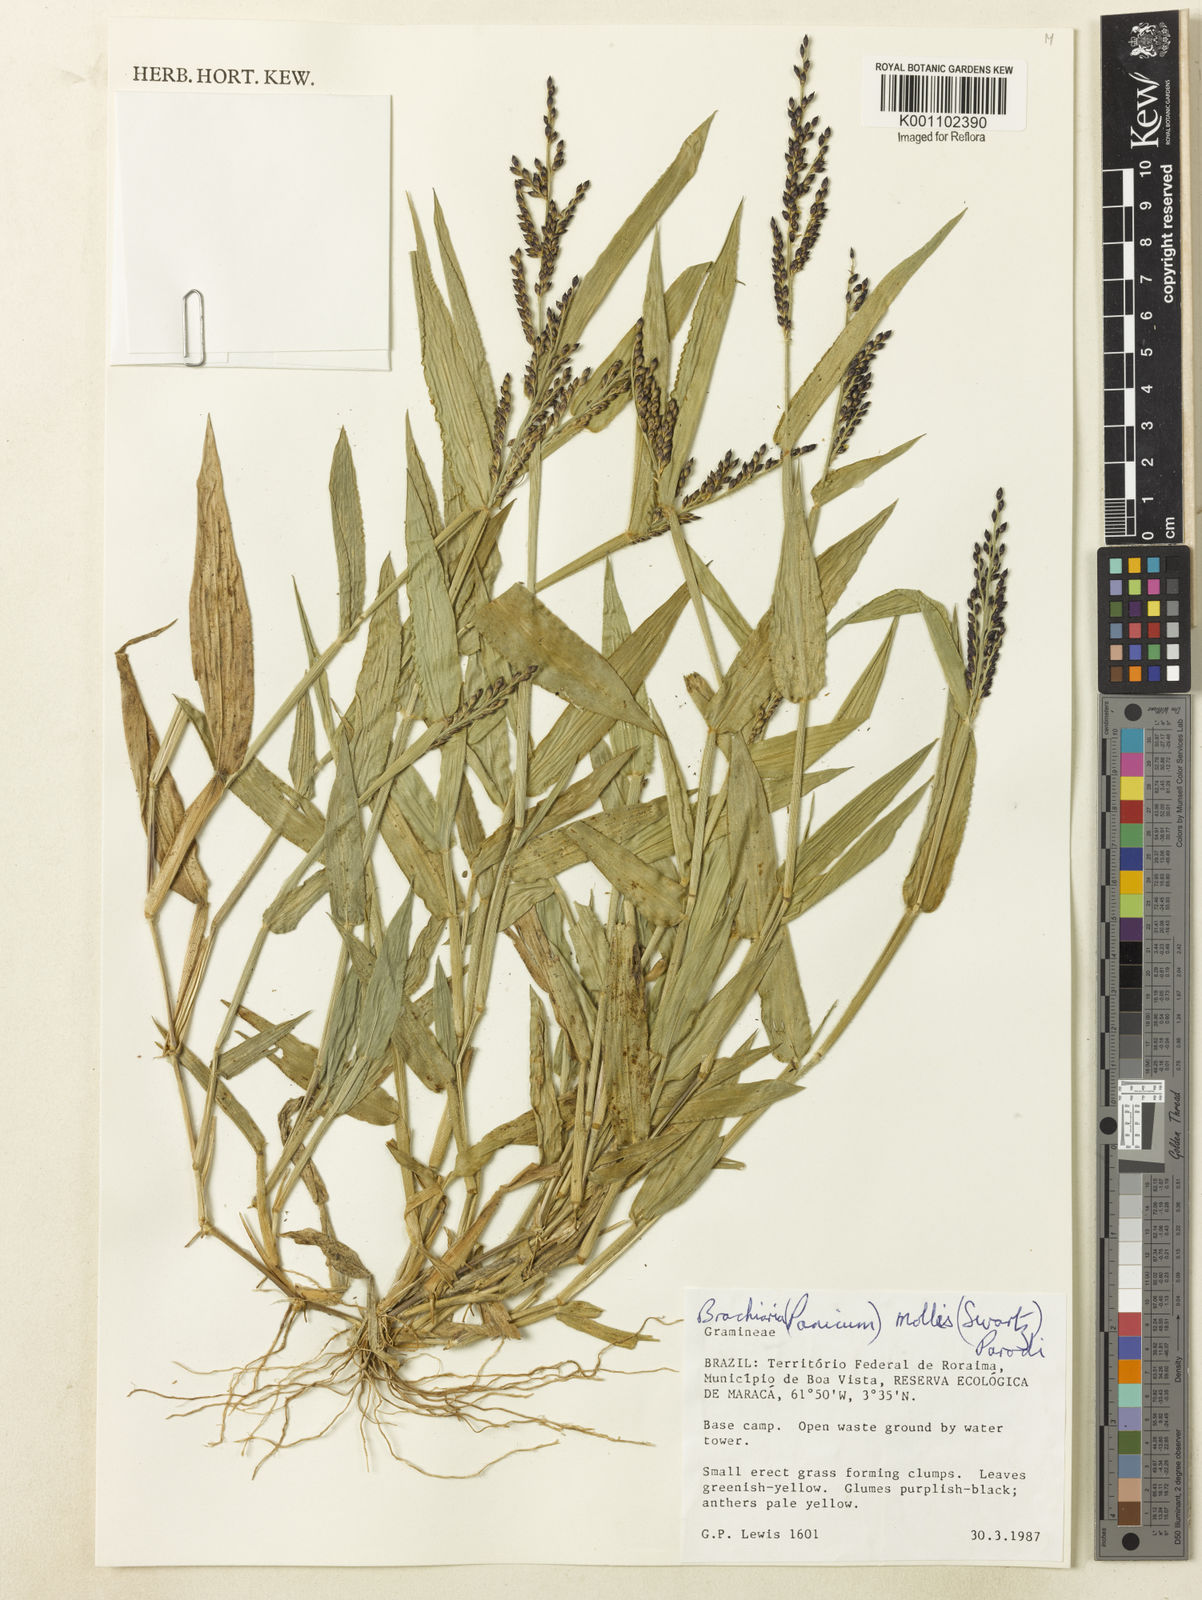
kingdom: Plantae
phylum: Tracheophyta
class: Liliopsida
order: Poales
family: Poaceae
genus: Urochloa
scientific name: Urochloa mollis
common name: Grass
